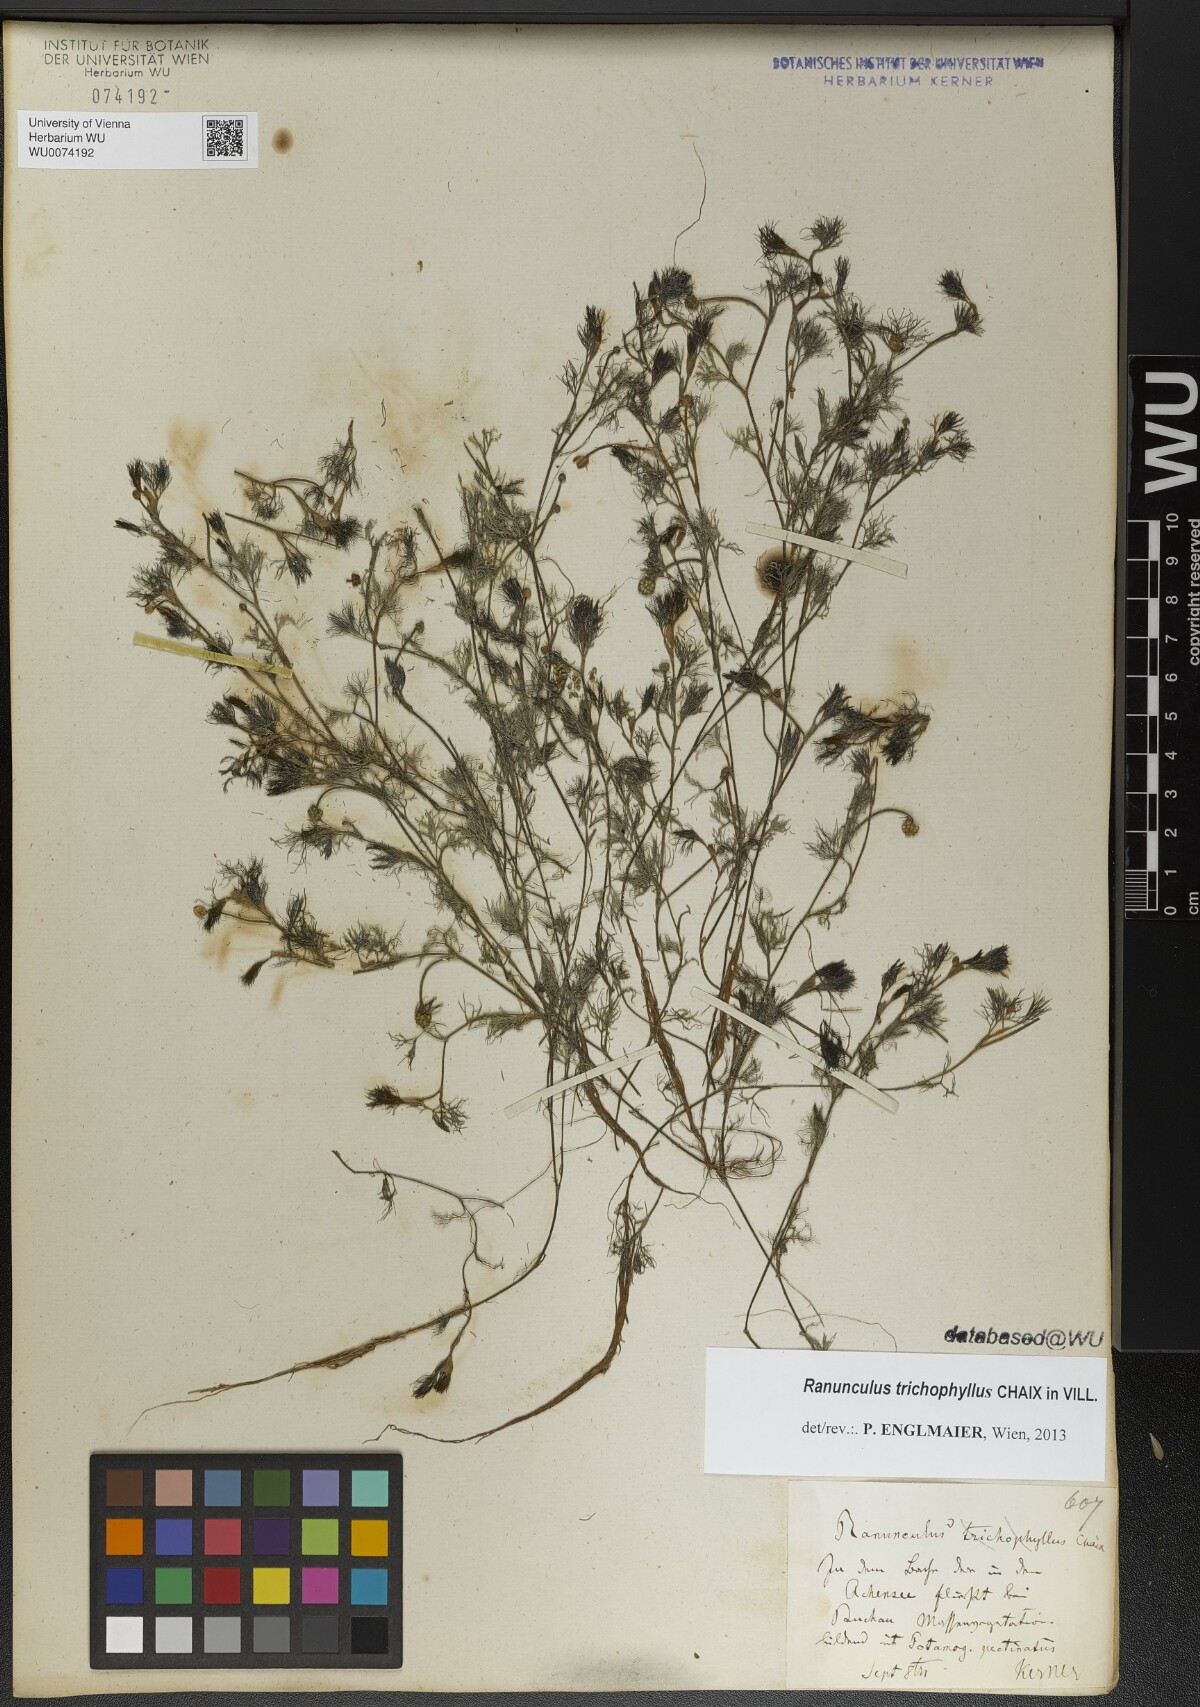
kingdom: Plantae
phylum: Tracheophyta
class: Magnoliopsida
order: Ranunculales
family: Ranunculaceae
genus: Ranunculus
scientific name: Ranunculus trichophyllus
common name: Thread-leaved water-crowfoot
